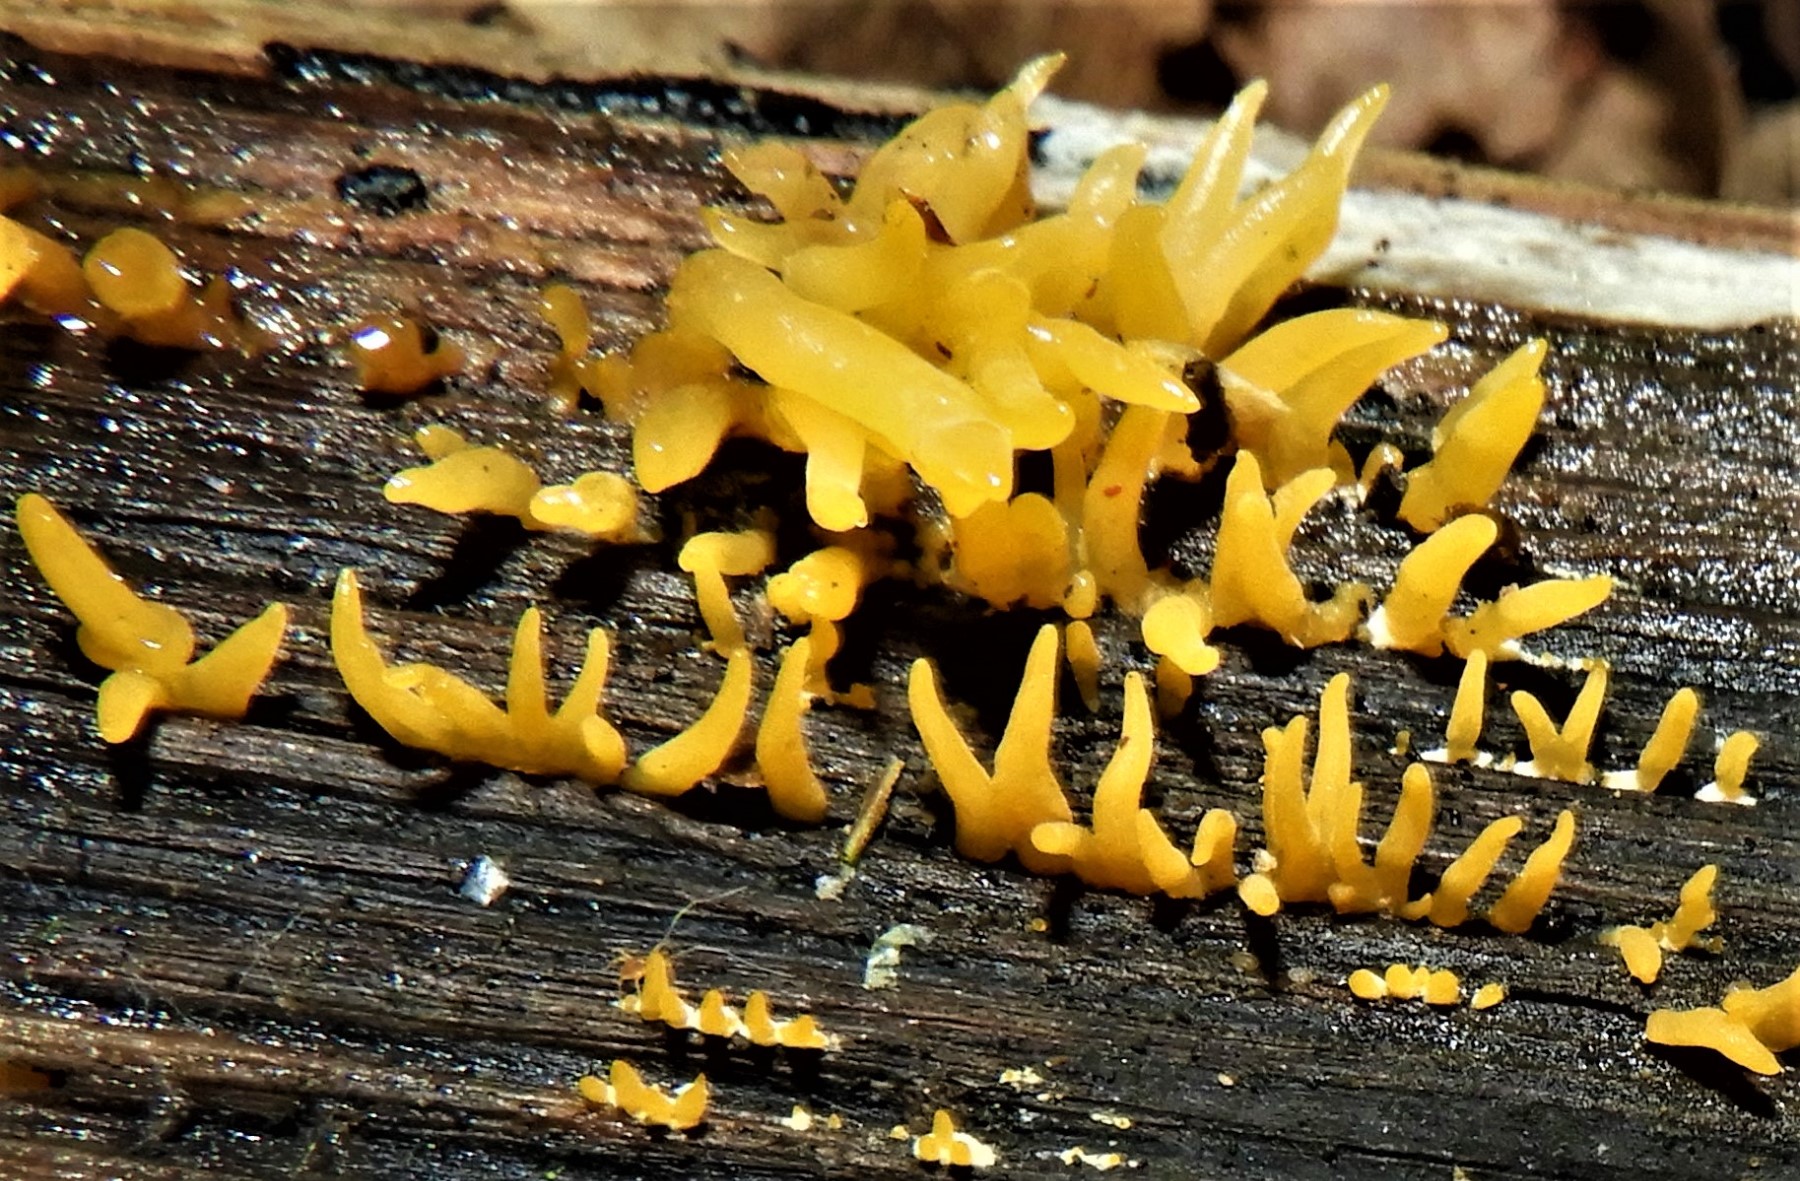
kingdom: Fungi
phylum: Basidiomycota
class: Dacrymycetes
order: Dacrymycetales
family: Dacrymycetaceae
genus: Calocera
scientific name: Calocera cornea
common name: liden guldgaffel
